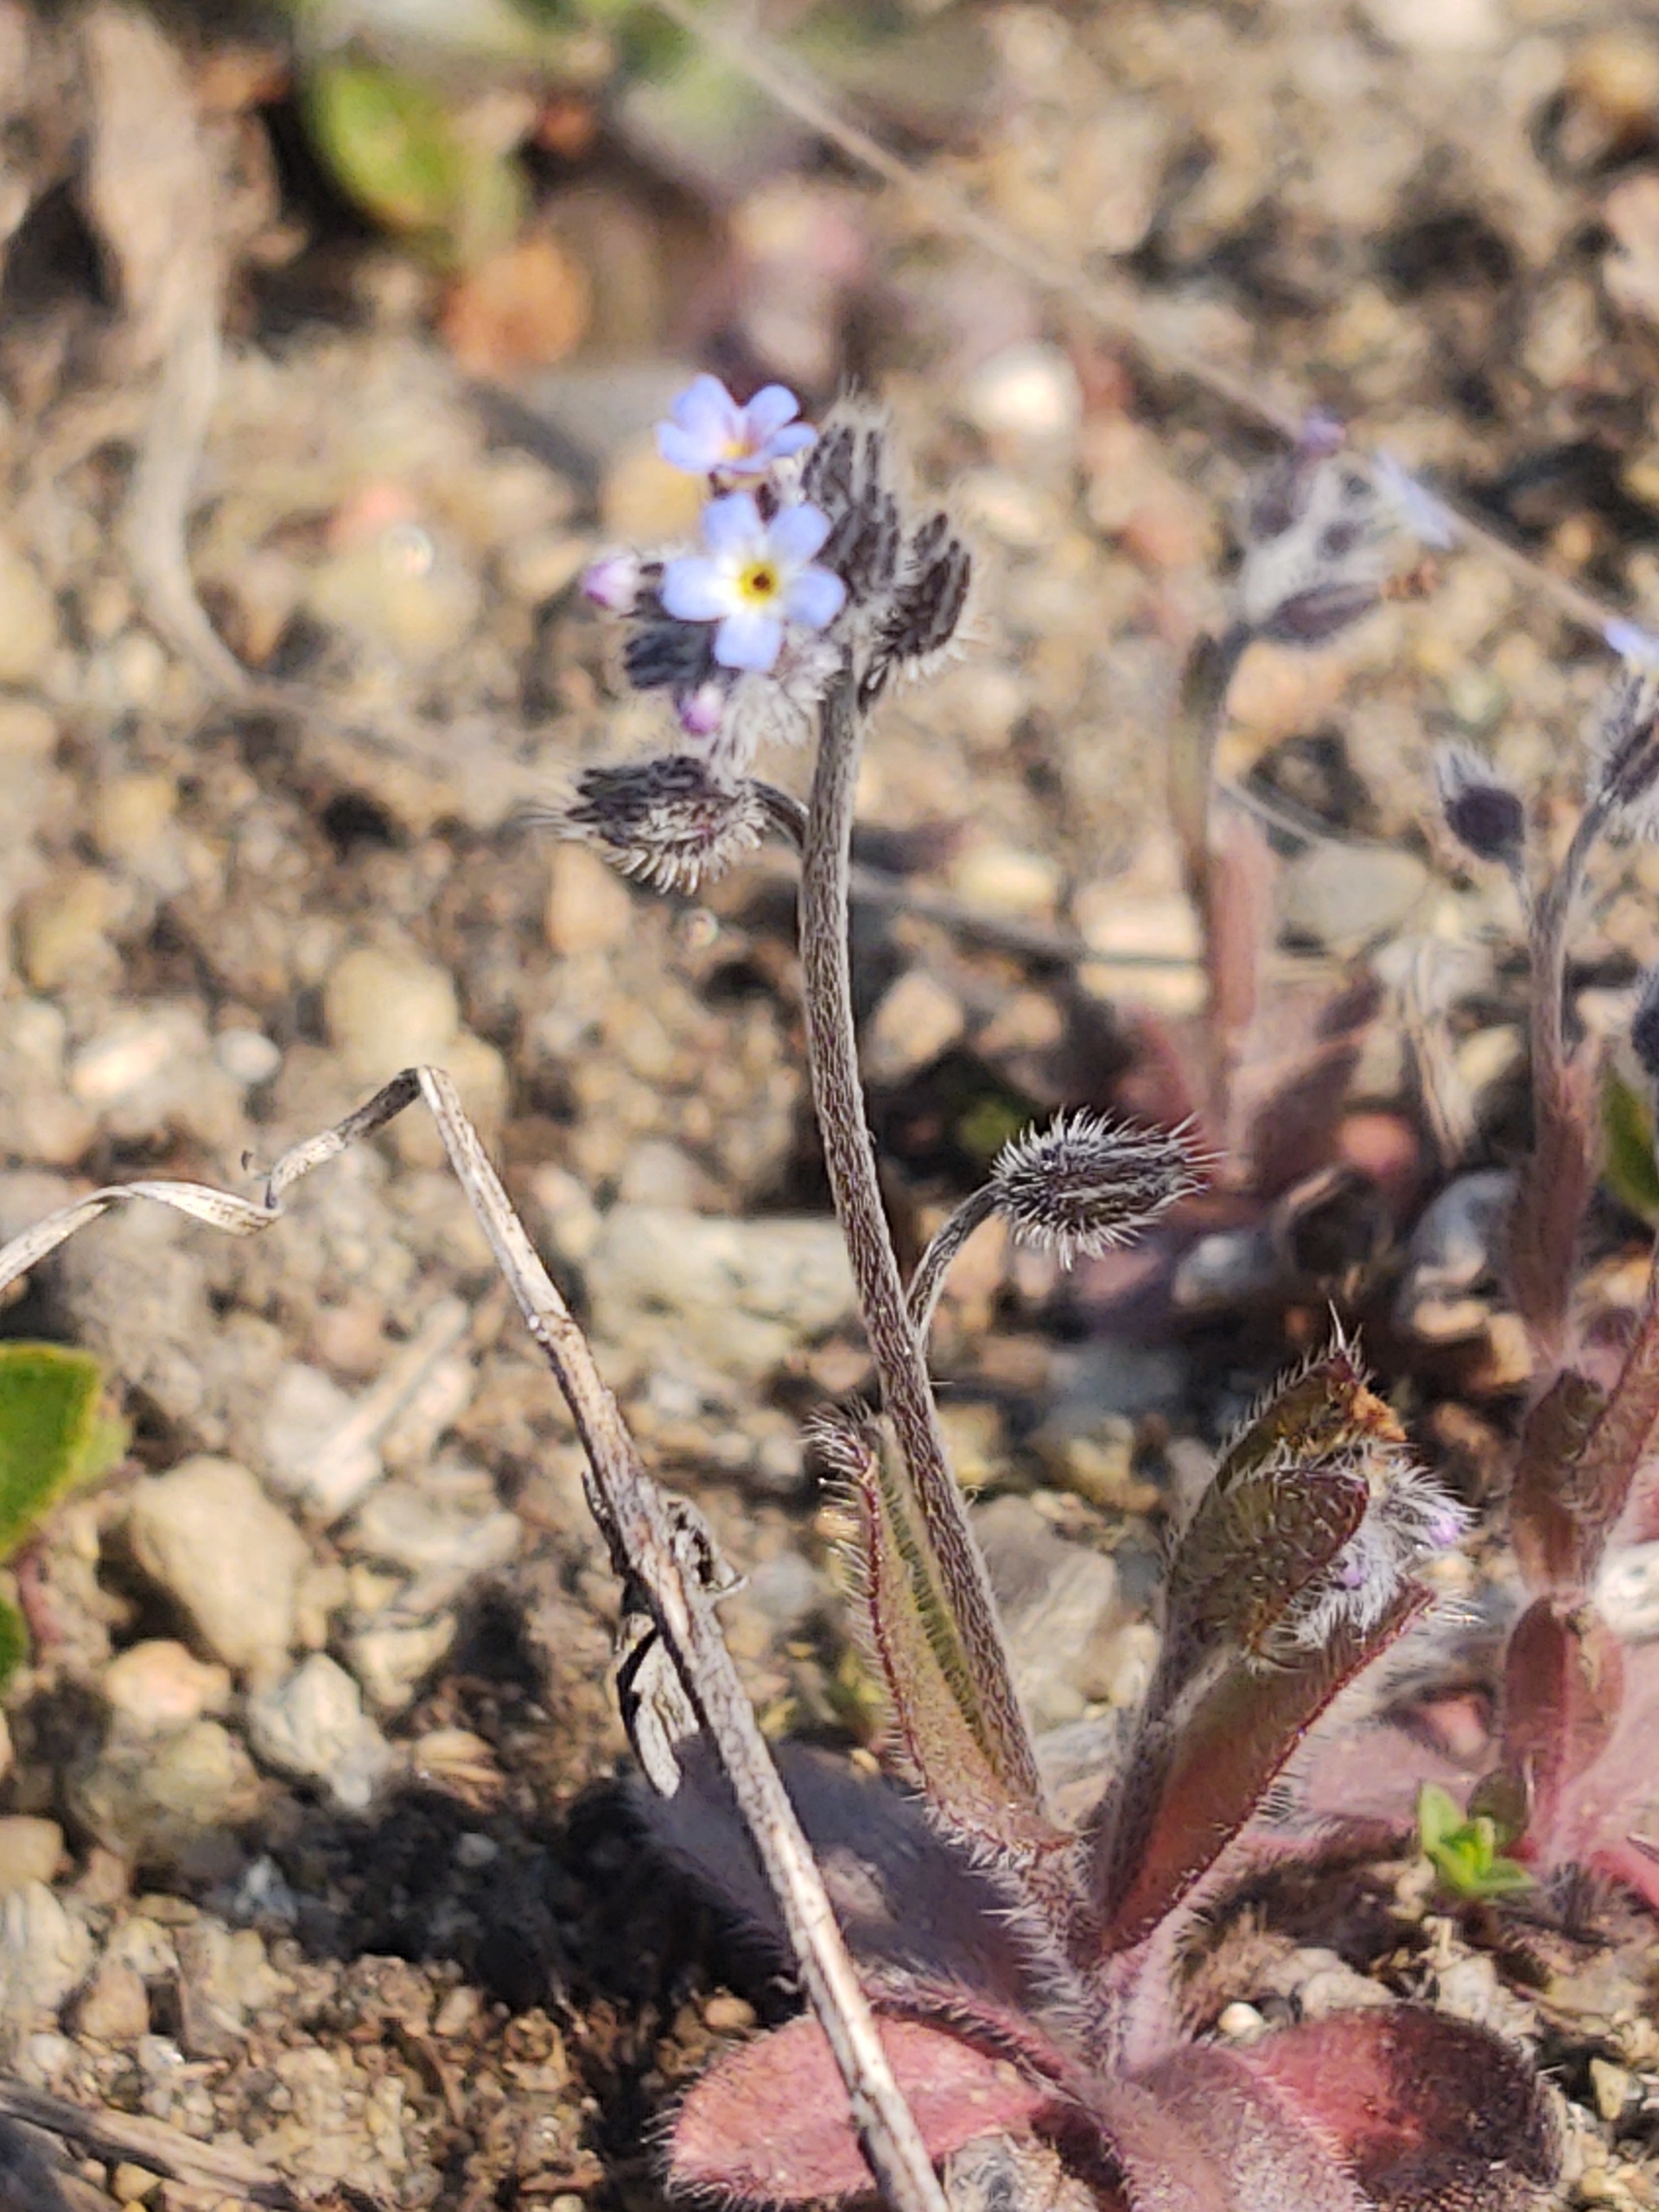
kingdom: Plantae
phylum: Tracheophyta
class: Magnoliopsida
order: Boraginales
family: Boraginaceae
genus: Myosotis
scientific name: Myosotis ramosissima
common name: Bakke-forglemmigej
